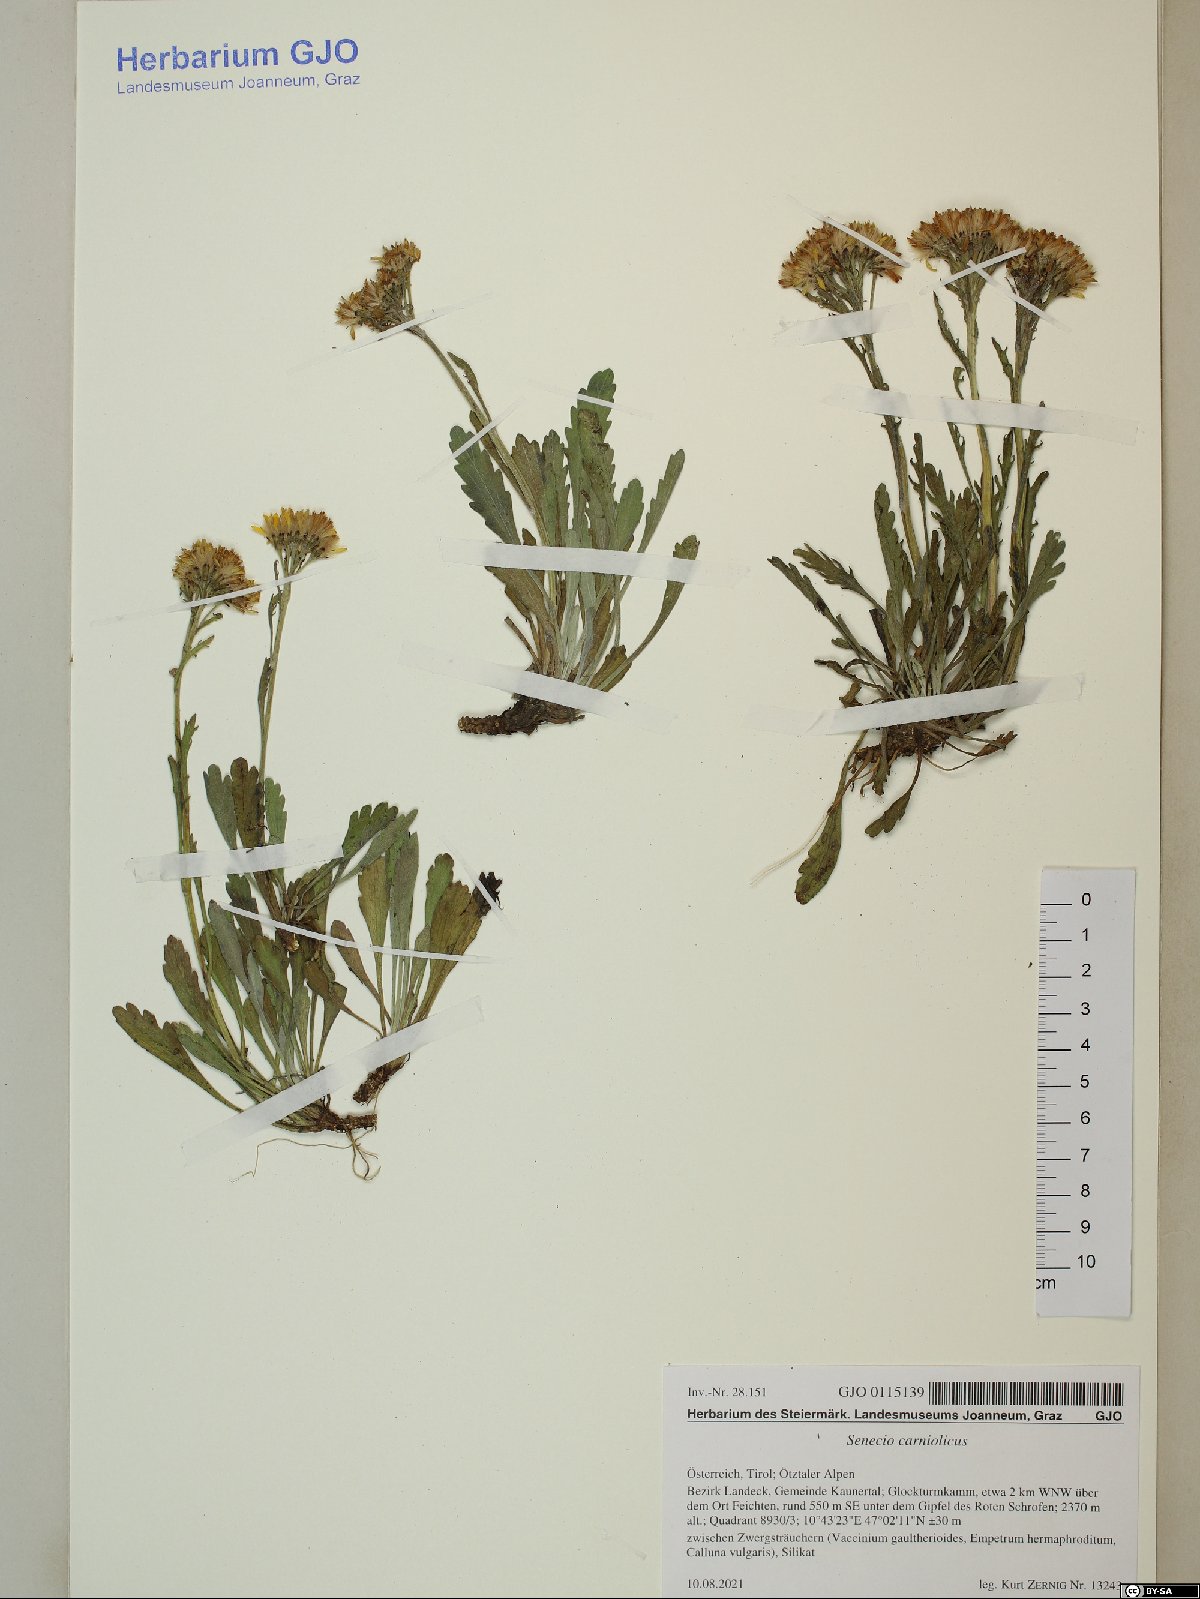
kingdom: Plantae
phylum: Tracheophyta
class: Magnoliopsida
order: Asterales
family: Asteraceae
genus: Jacobaea
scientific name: Jacobaea carniolica
